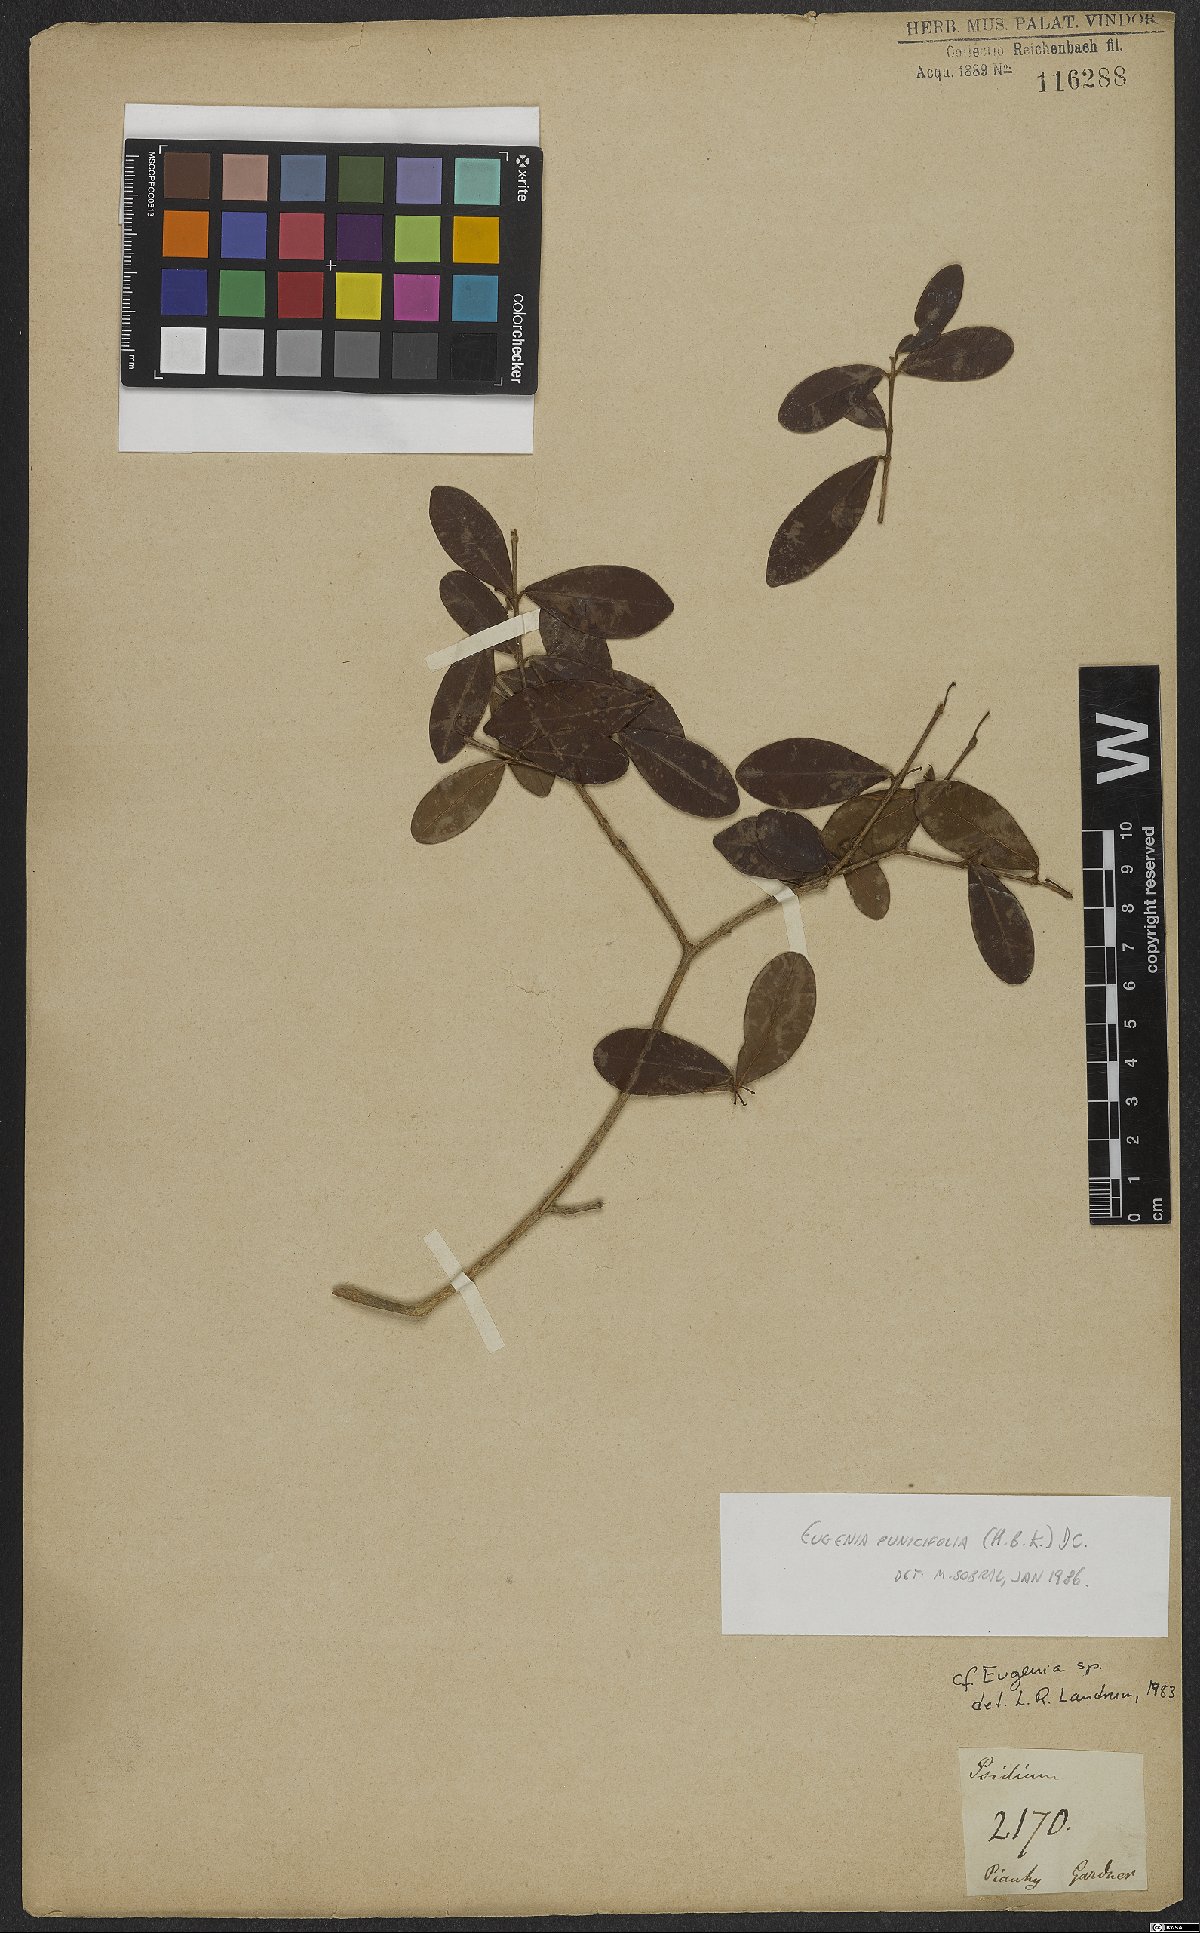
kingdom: Plantae
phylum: Tracheophyta
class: Magnoliopsida
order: Myrtales
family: Myrtaceae
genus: Eugenia
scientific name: Eugenia punicifolia
